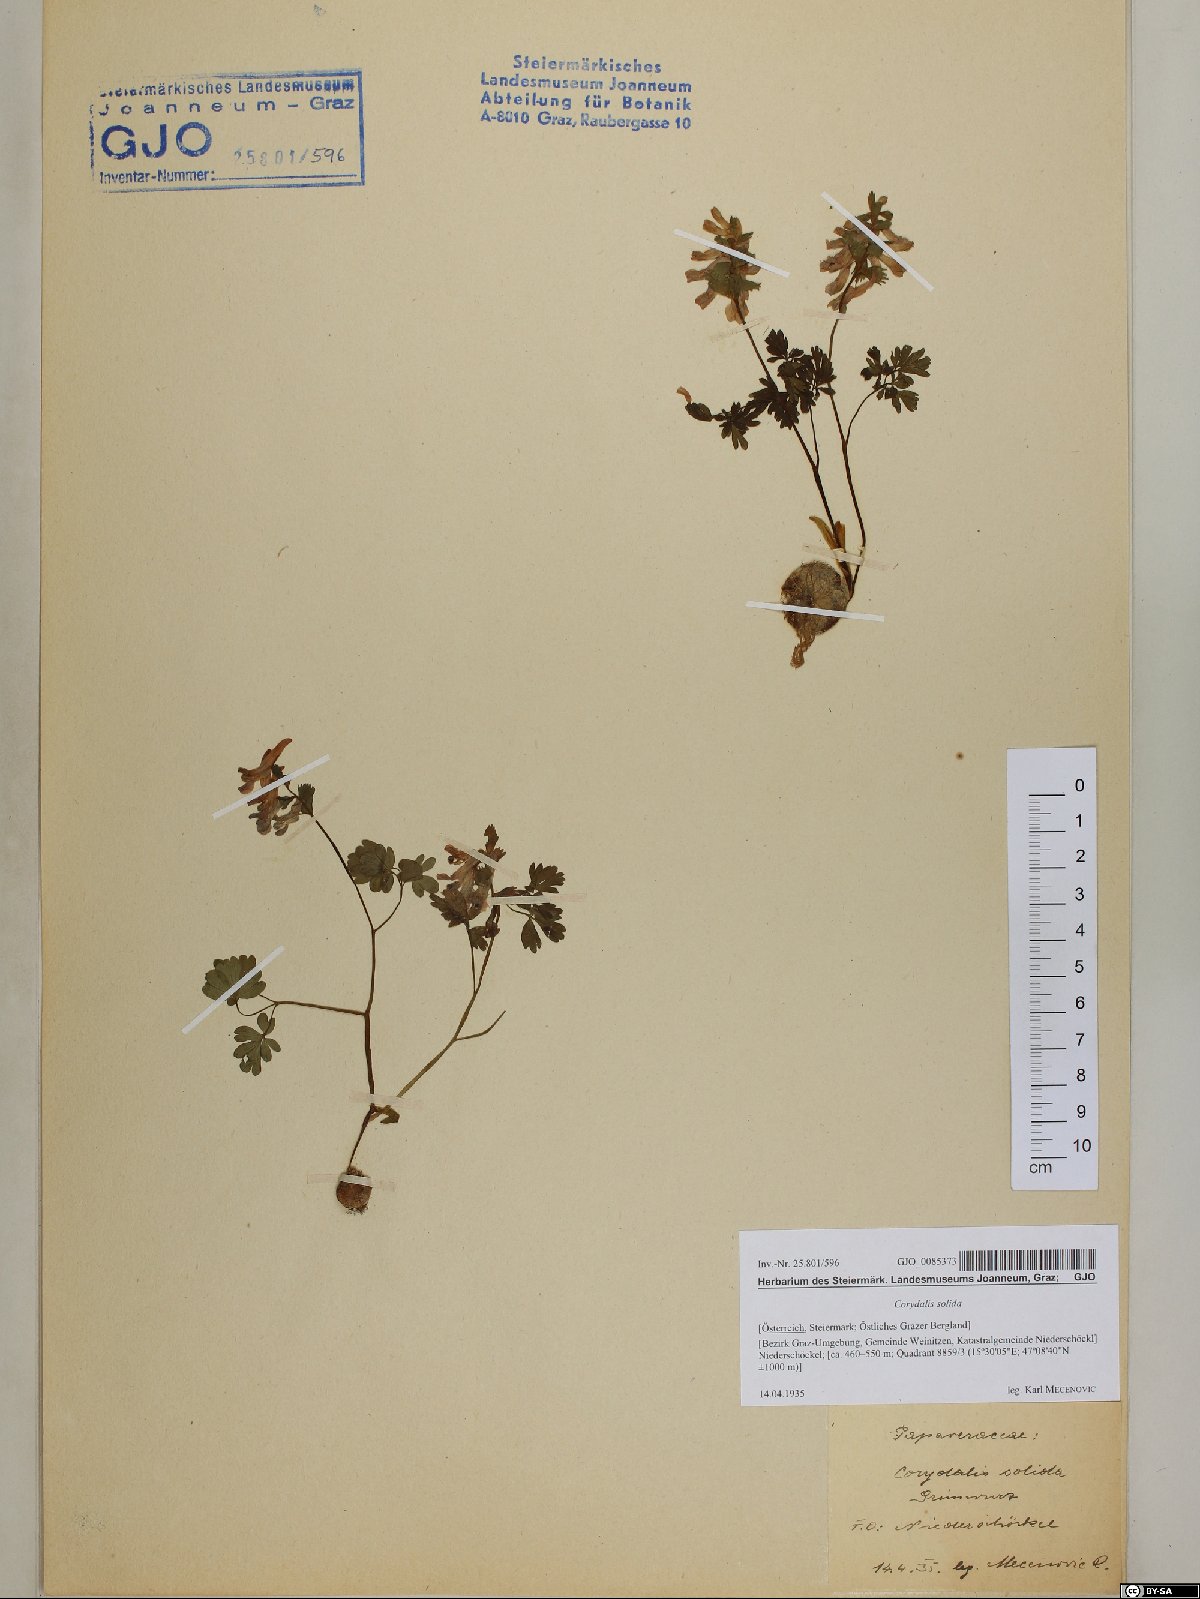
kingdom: Plantae
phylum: Tracheophyta
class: Magnoliopsida
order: Ranunculales
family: Papaveraceae
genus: Corydalis
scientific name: Corydalis solida
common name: Bird-in-a-bush
